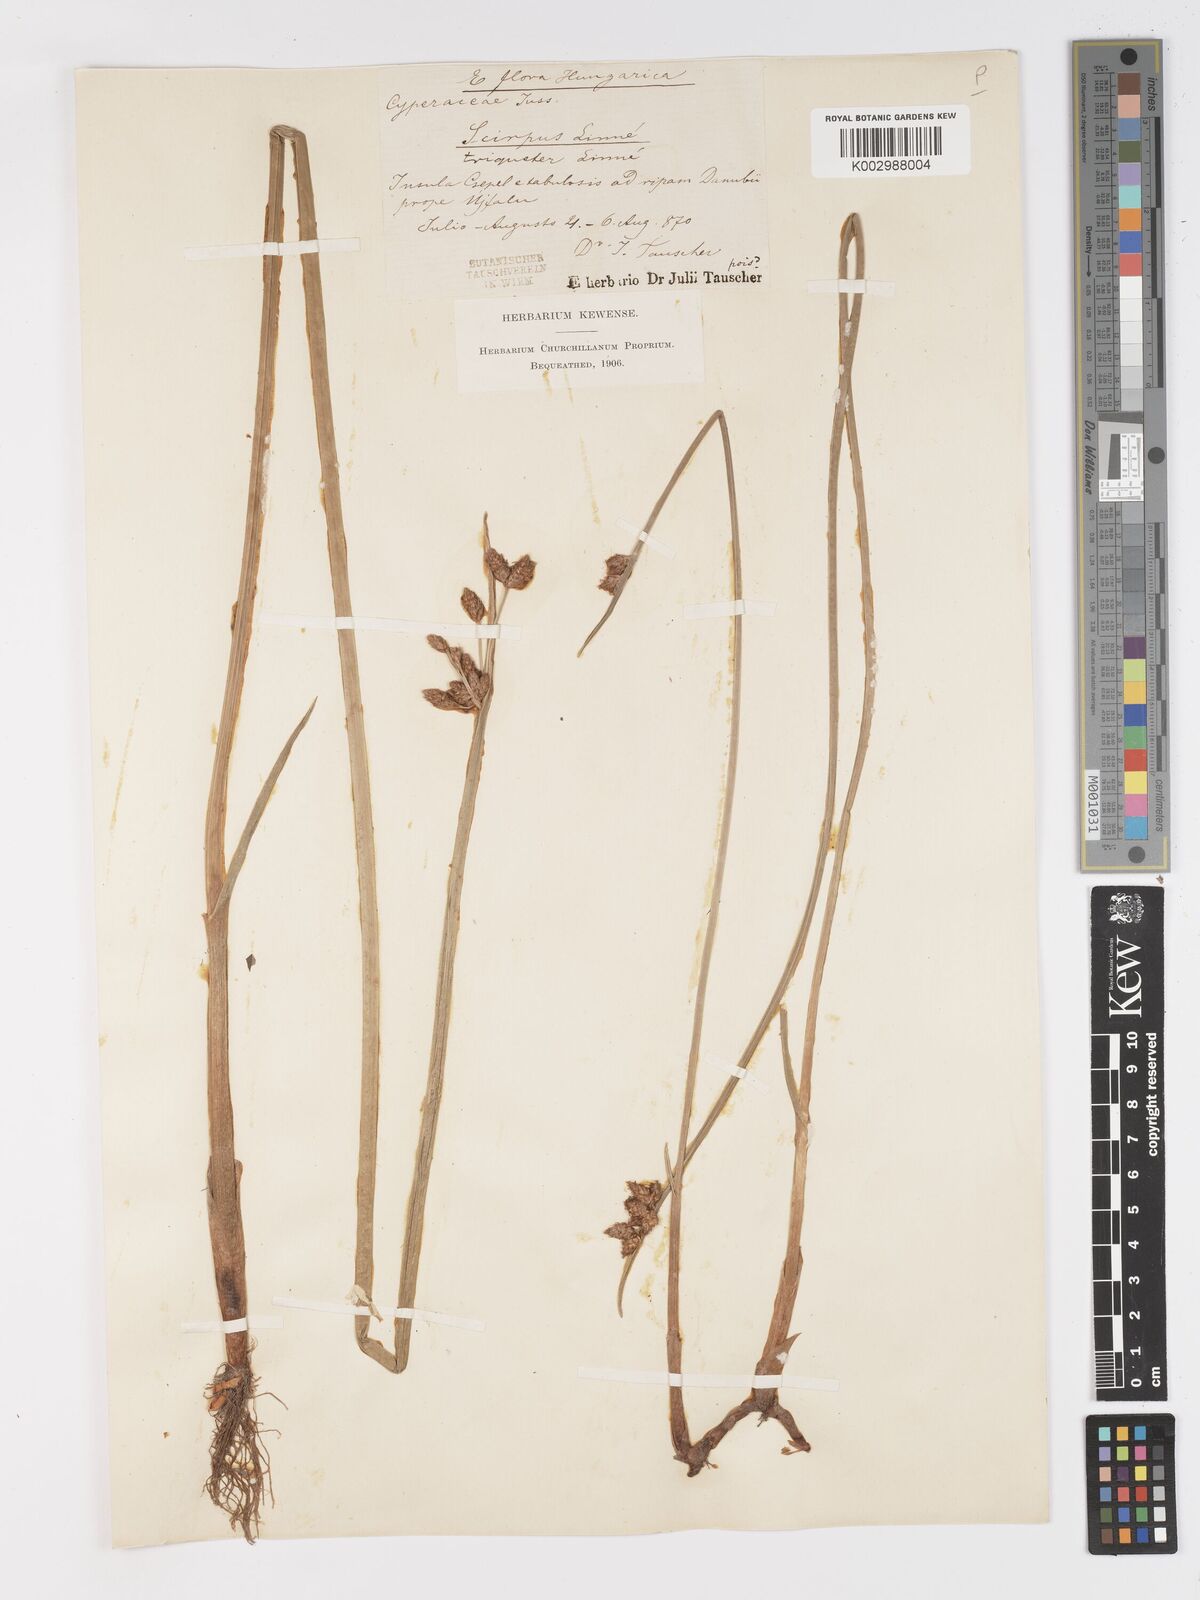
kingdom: Plantae
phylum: Tracheophyta
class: Liliopsida
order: Poales
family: Cyperaceae
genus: Schoenoplectus
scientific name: Schoenoplectus triqueter
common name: Triangular club-rush
